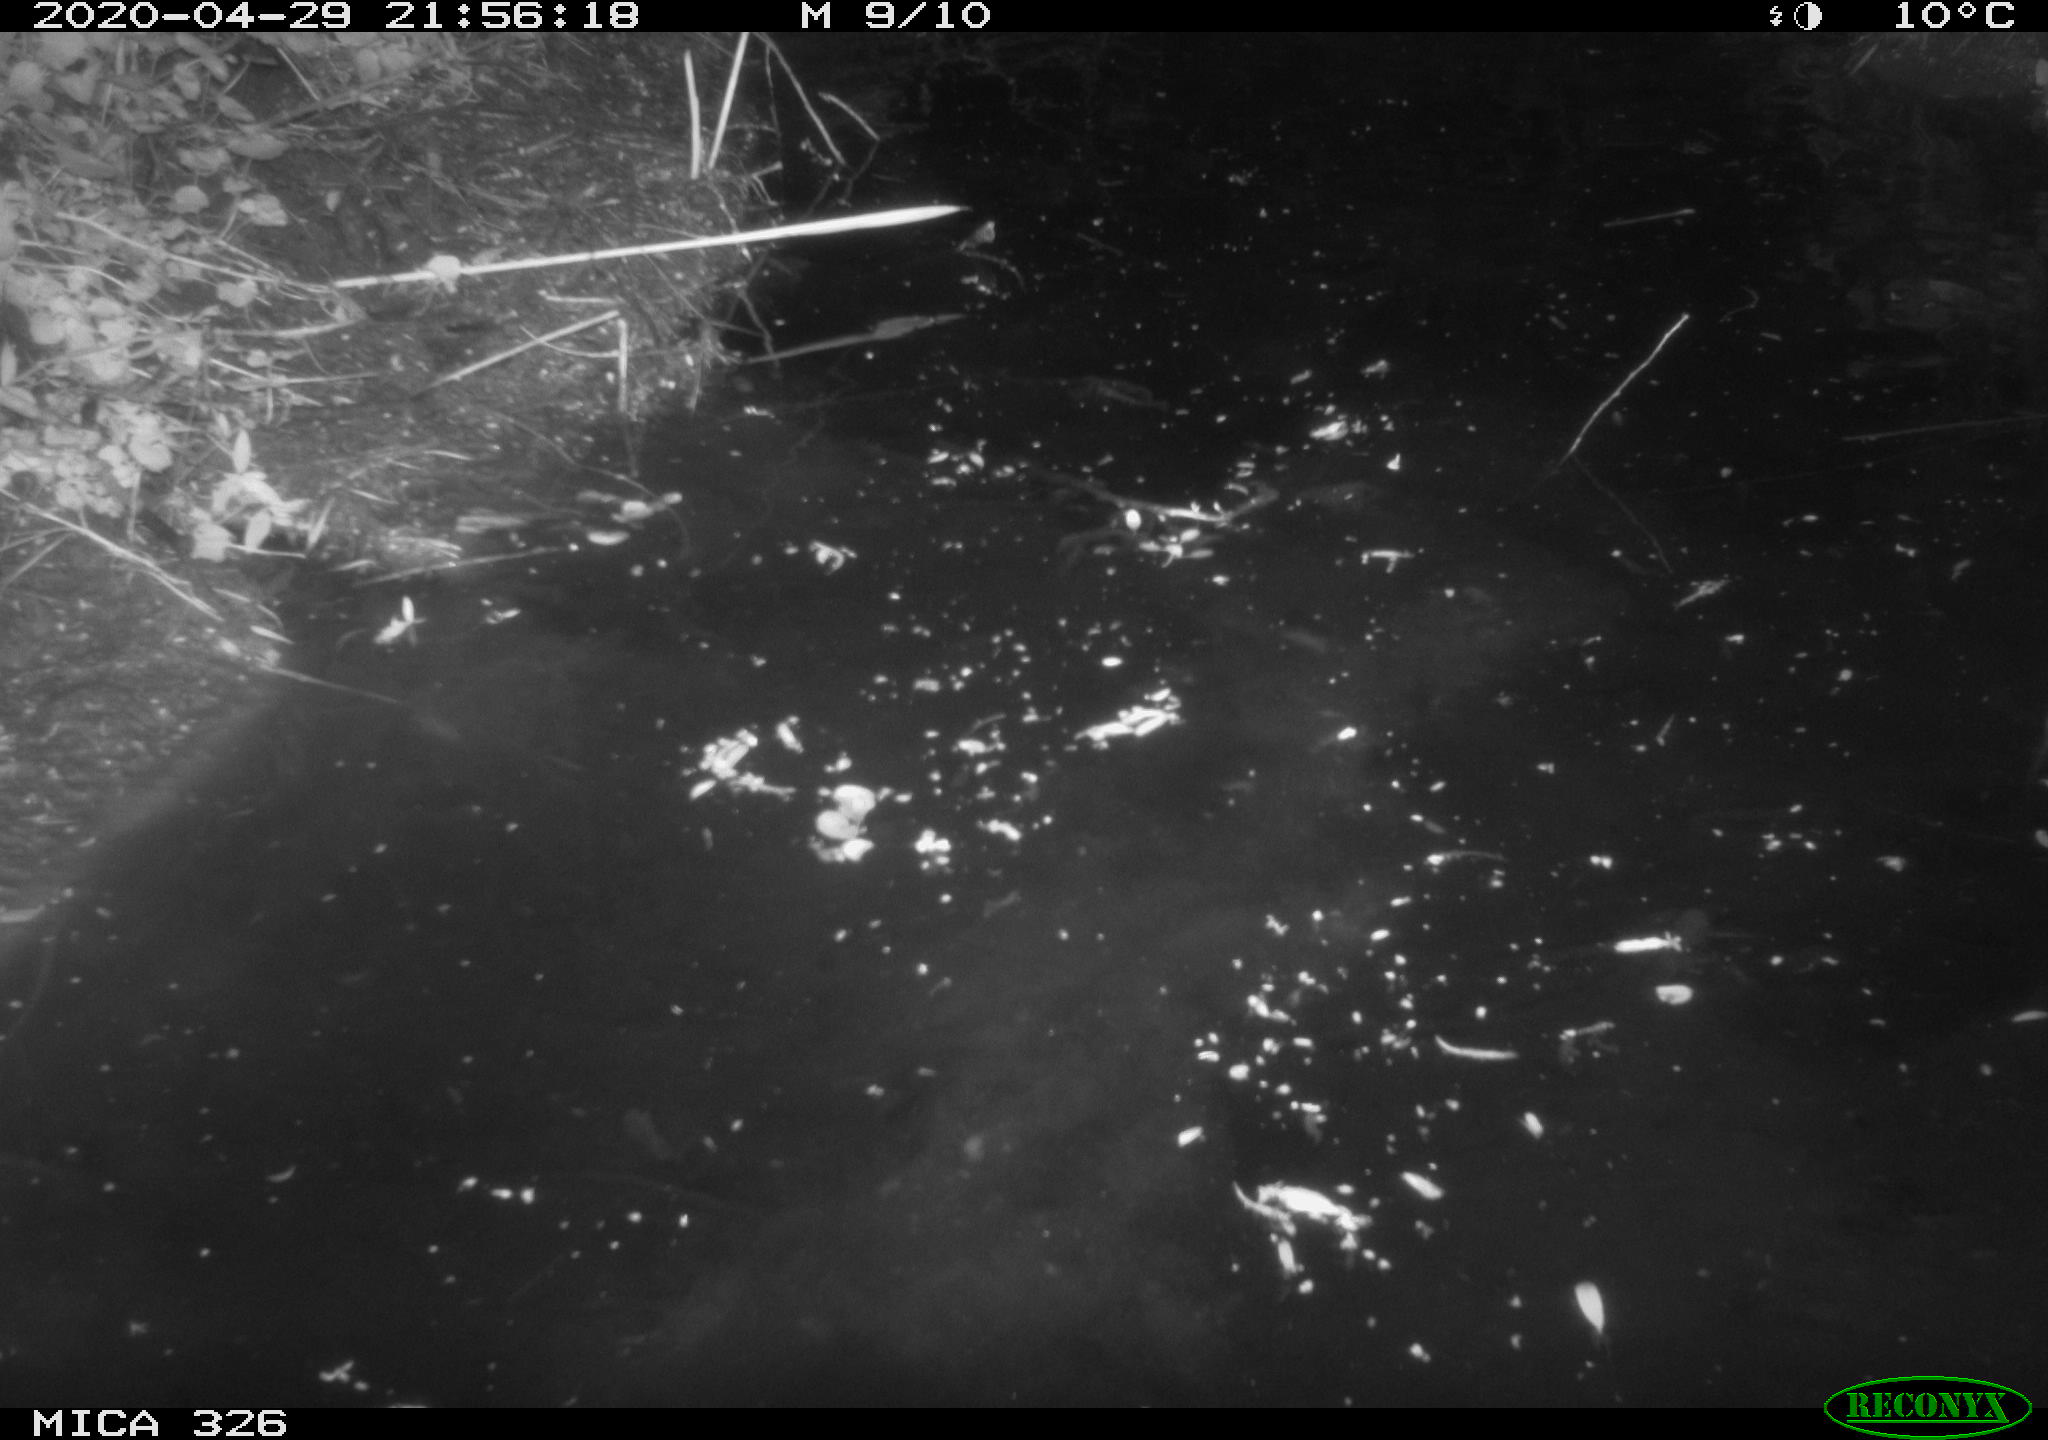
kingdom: Animalia
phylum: Chordata
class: Mammalia
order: Rodentia
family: Cricetidae
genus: Ondatra
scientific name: Ondatra zibethicus
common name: Muskrat
